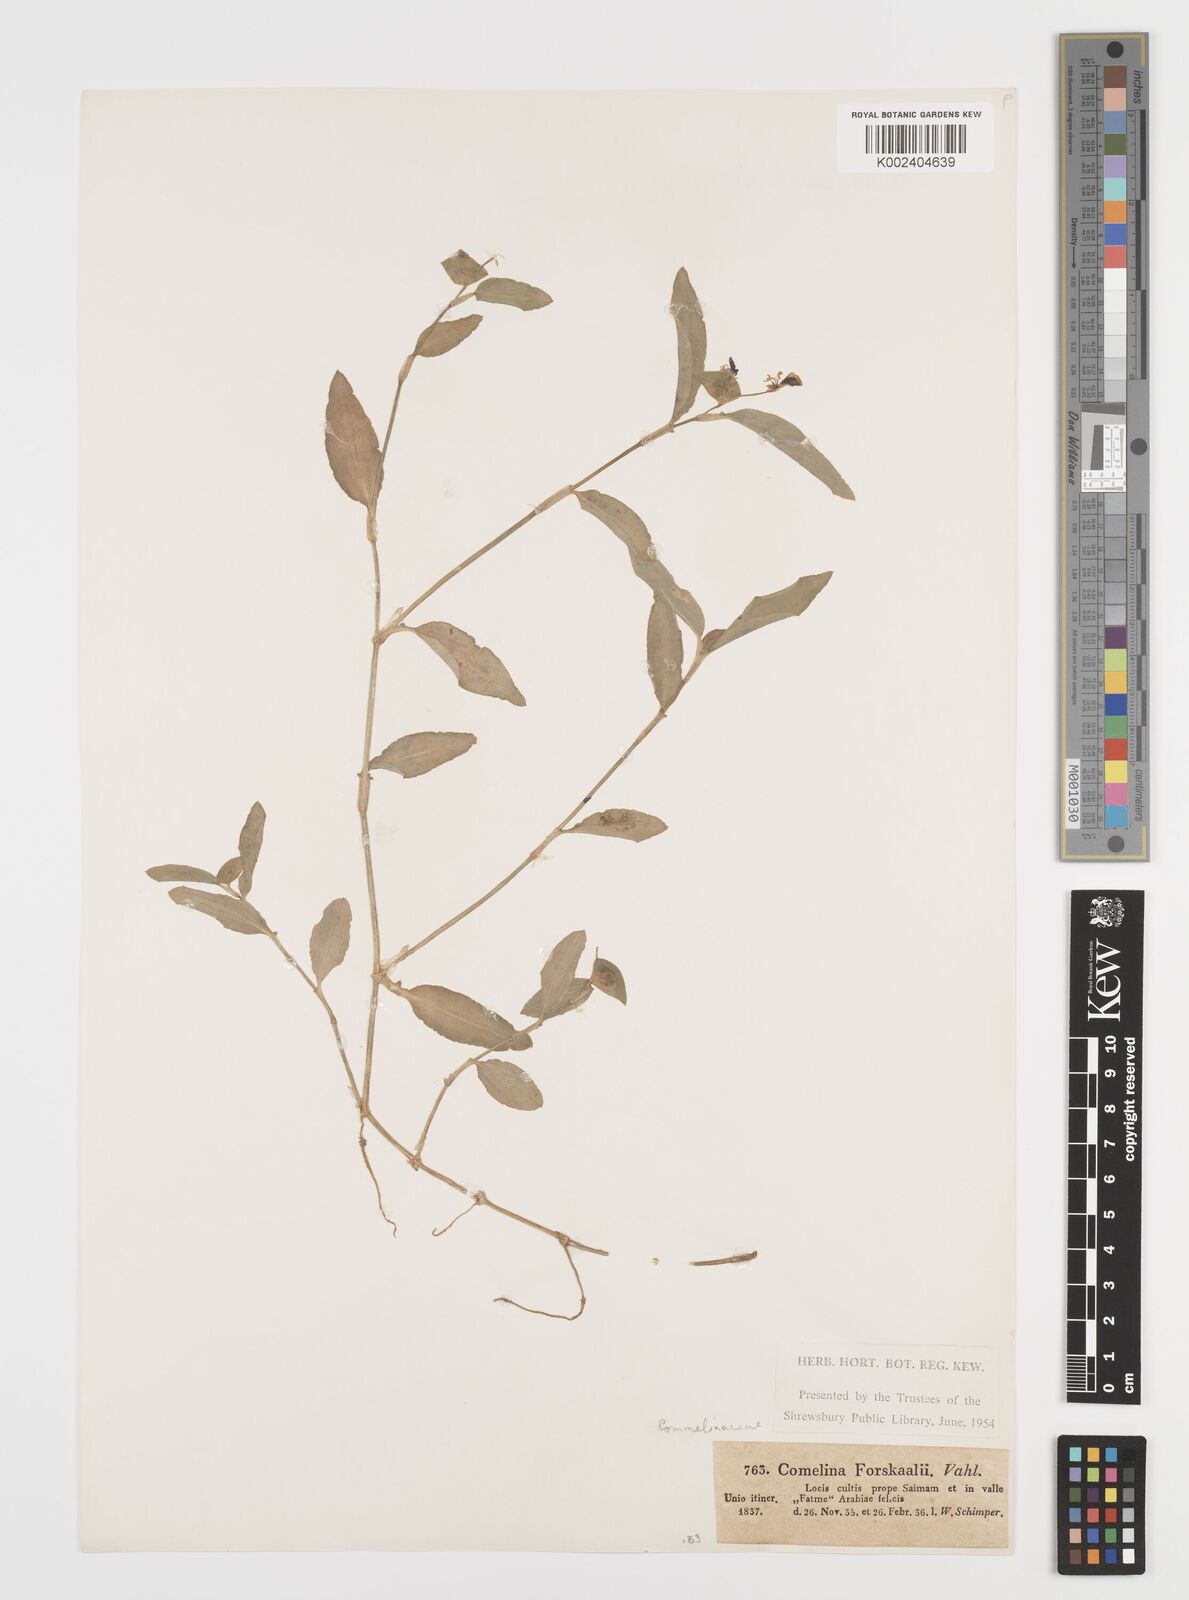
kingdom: Plantae
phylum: Tracheophyta
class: Liliopsida
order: Commelinales
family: Commelinaceae
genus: Commelina
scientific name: Commelina forskaolii
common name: Rat's ear
